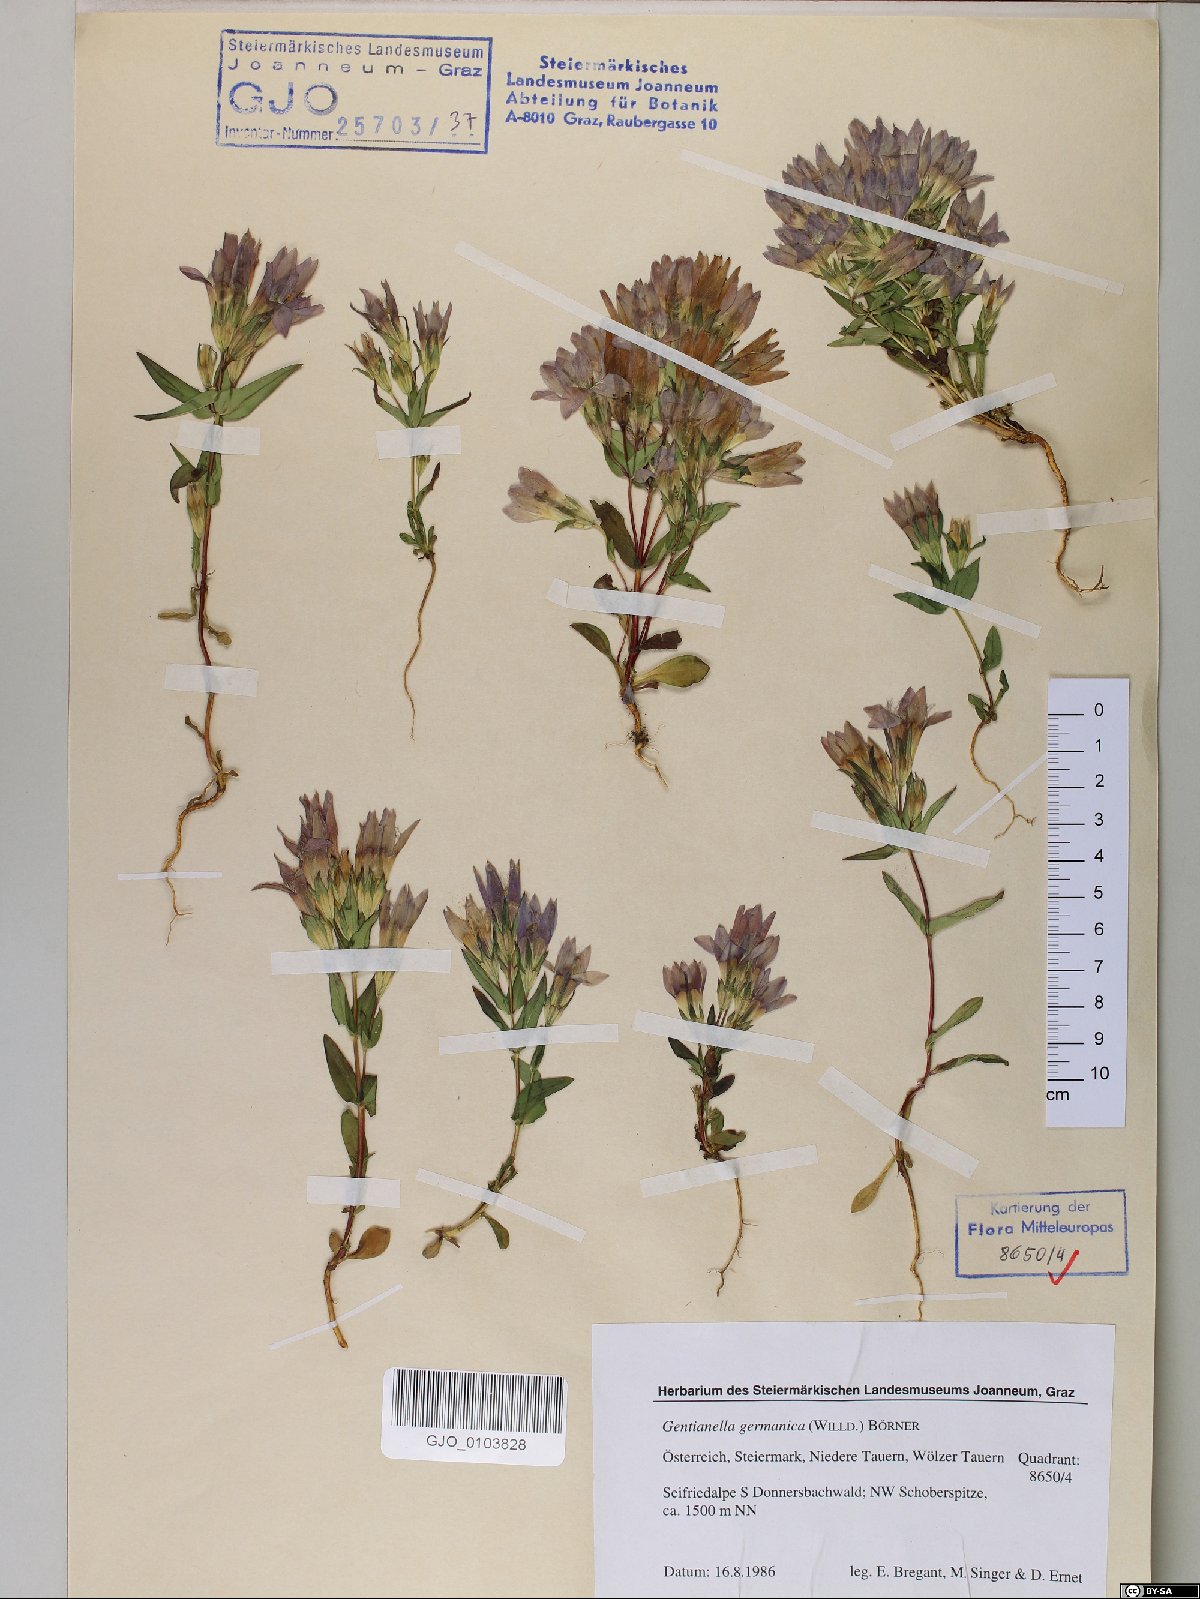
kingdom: Plantae
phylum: Tracheophyta
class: Magnoliopsida
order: Gentianales
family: Gentianaceae
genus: Gentianella
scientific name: Gentianella germanica
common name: Chiltern-gentian
